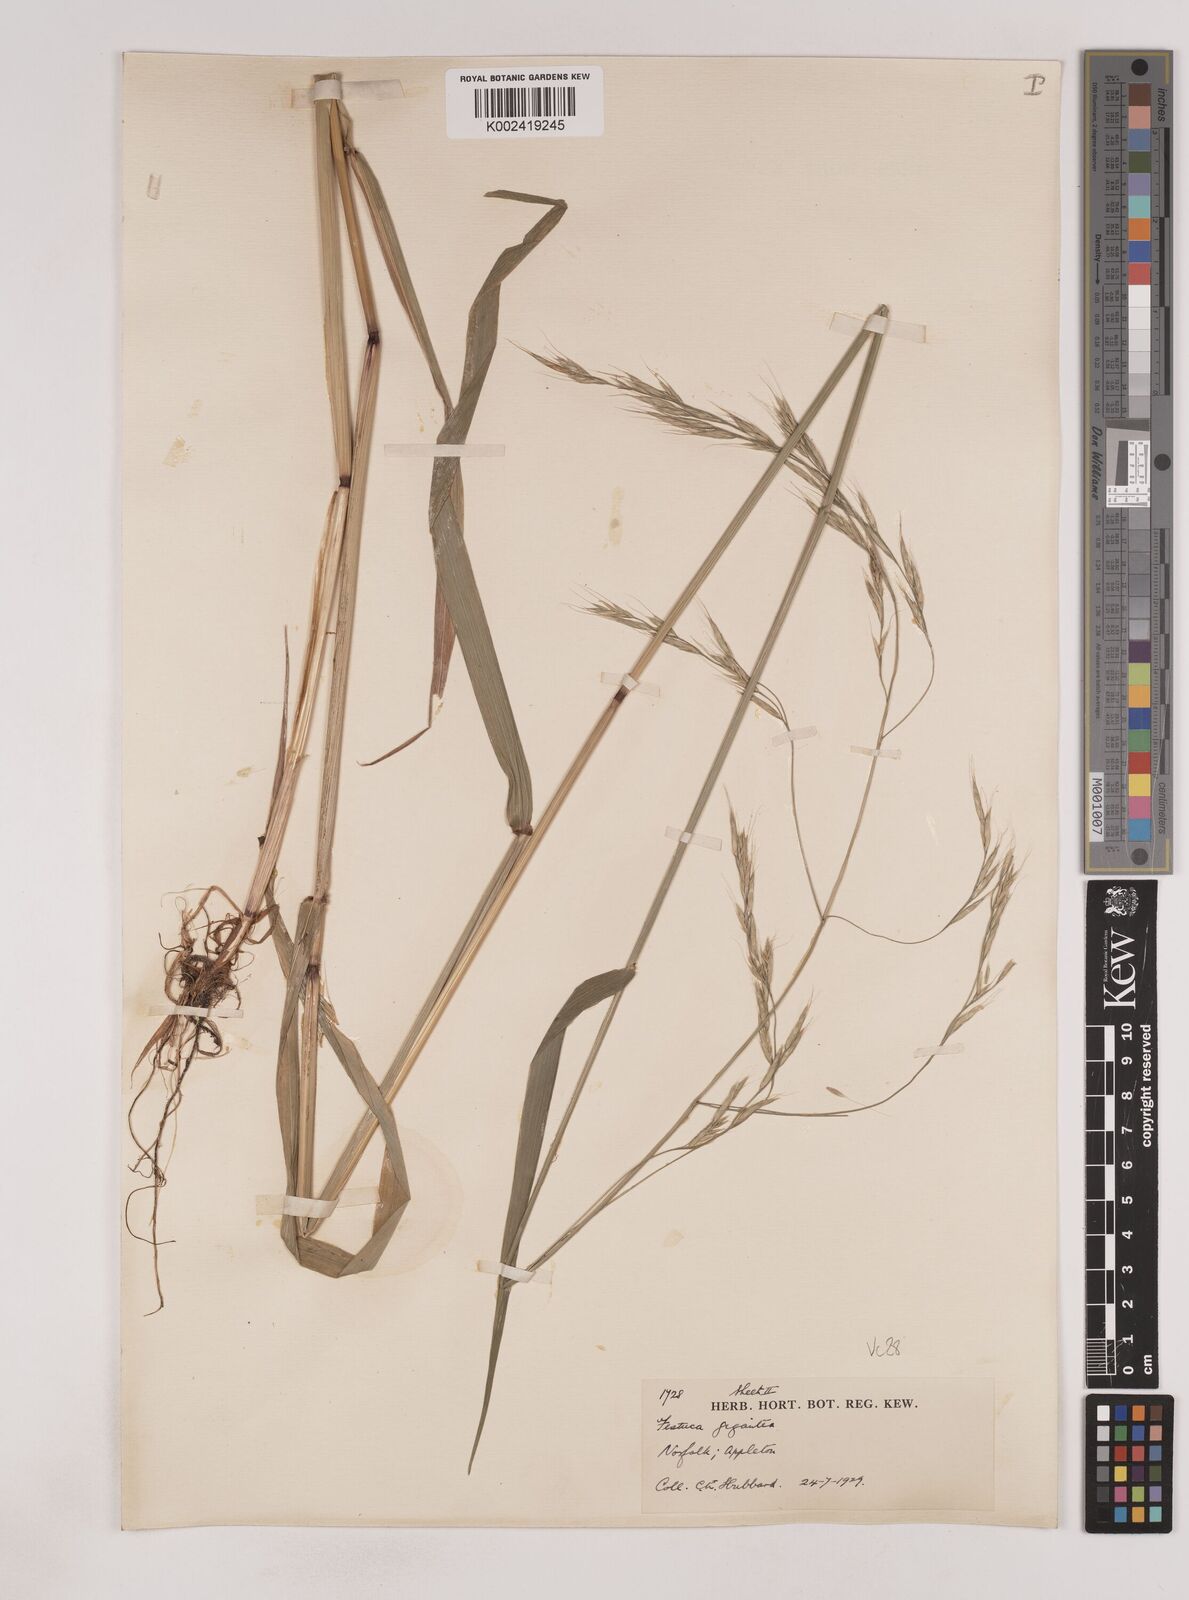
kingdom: Plantae
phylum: Tracheophyta
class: Liliopsida
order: Poales
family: Poaceae
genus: Lolium
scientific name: Lolium giganteum
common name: Giant fescue
